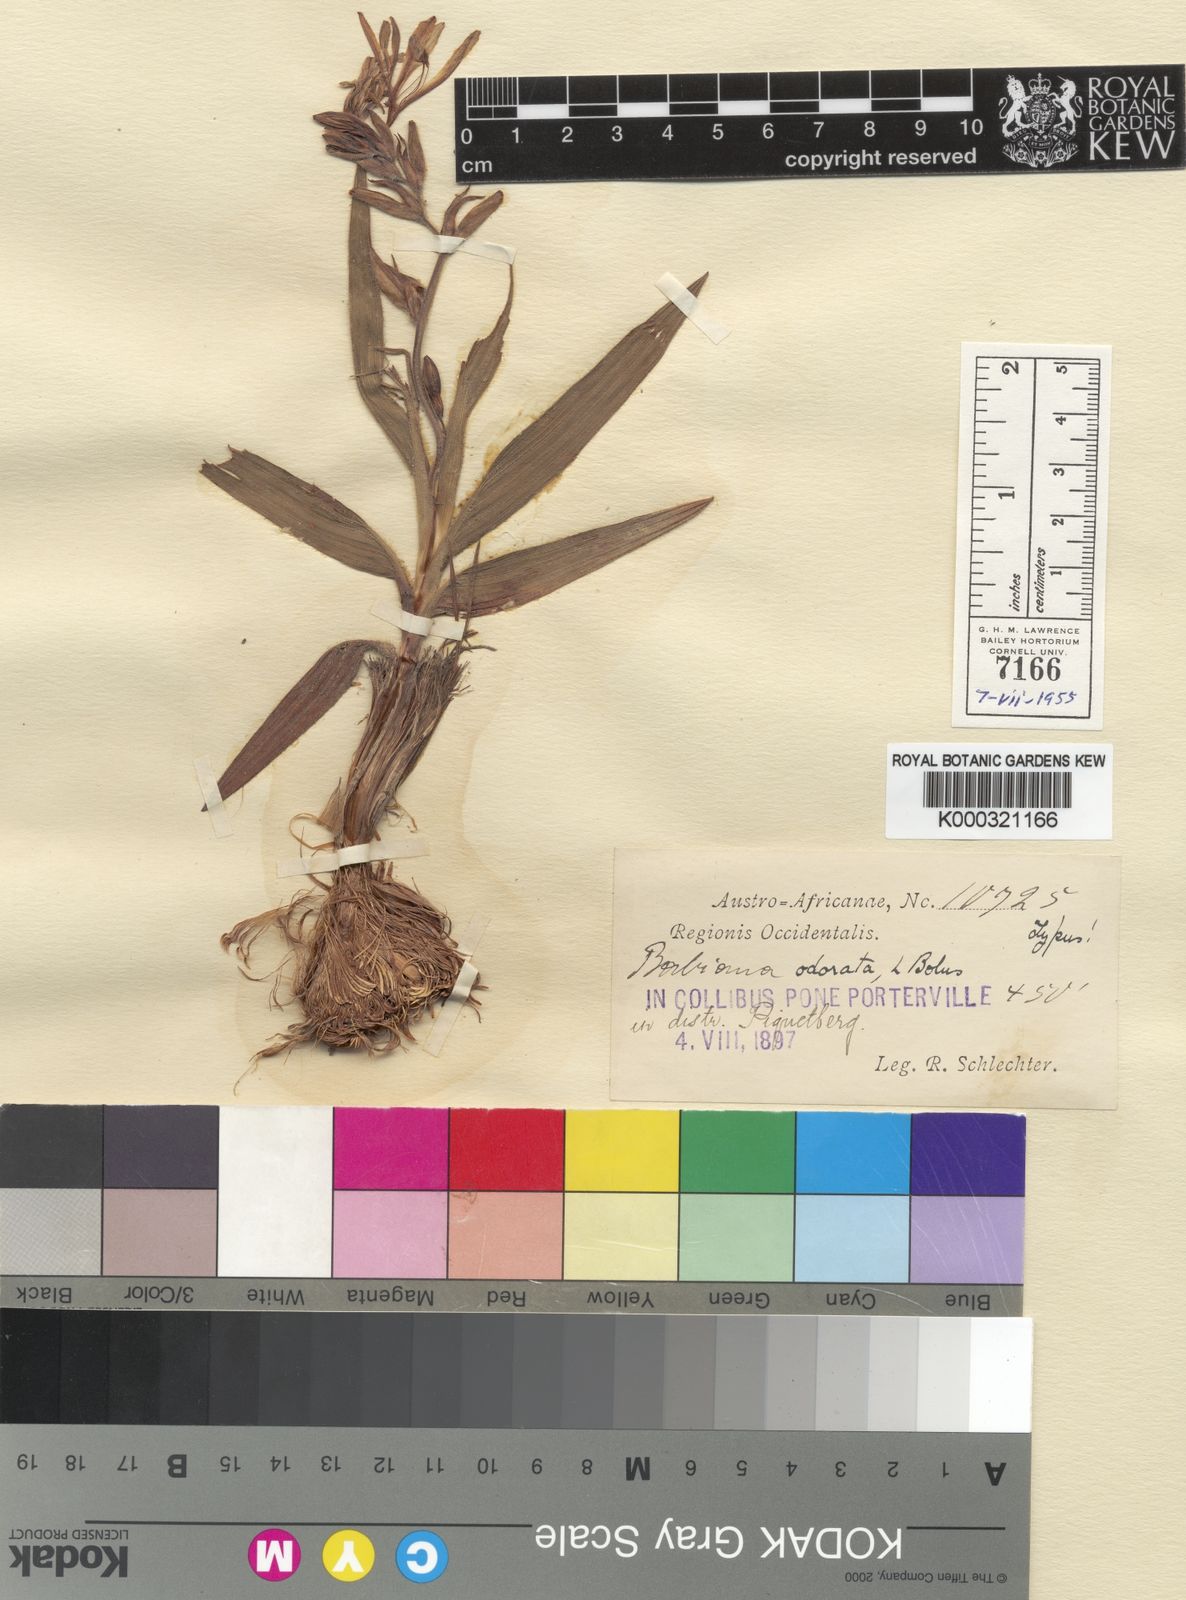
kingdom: Plantae
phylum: Tracheophyta
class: Liliopsida
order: Asparagales
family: Iridaceae
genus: Babiana
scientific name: Babiana odorata
